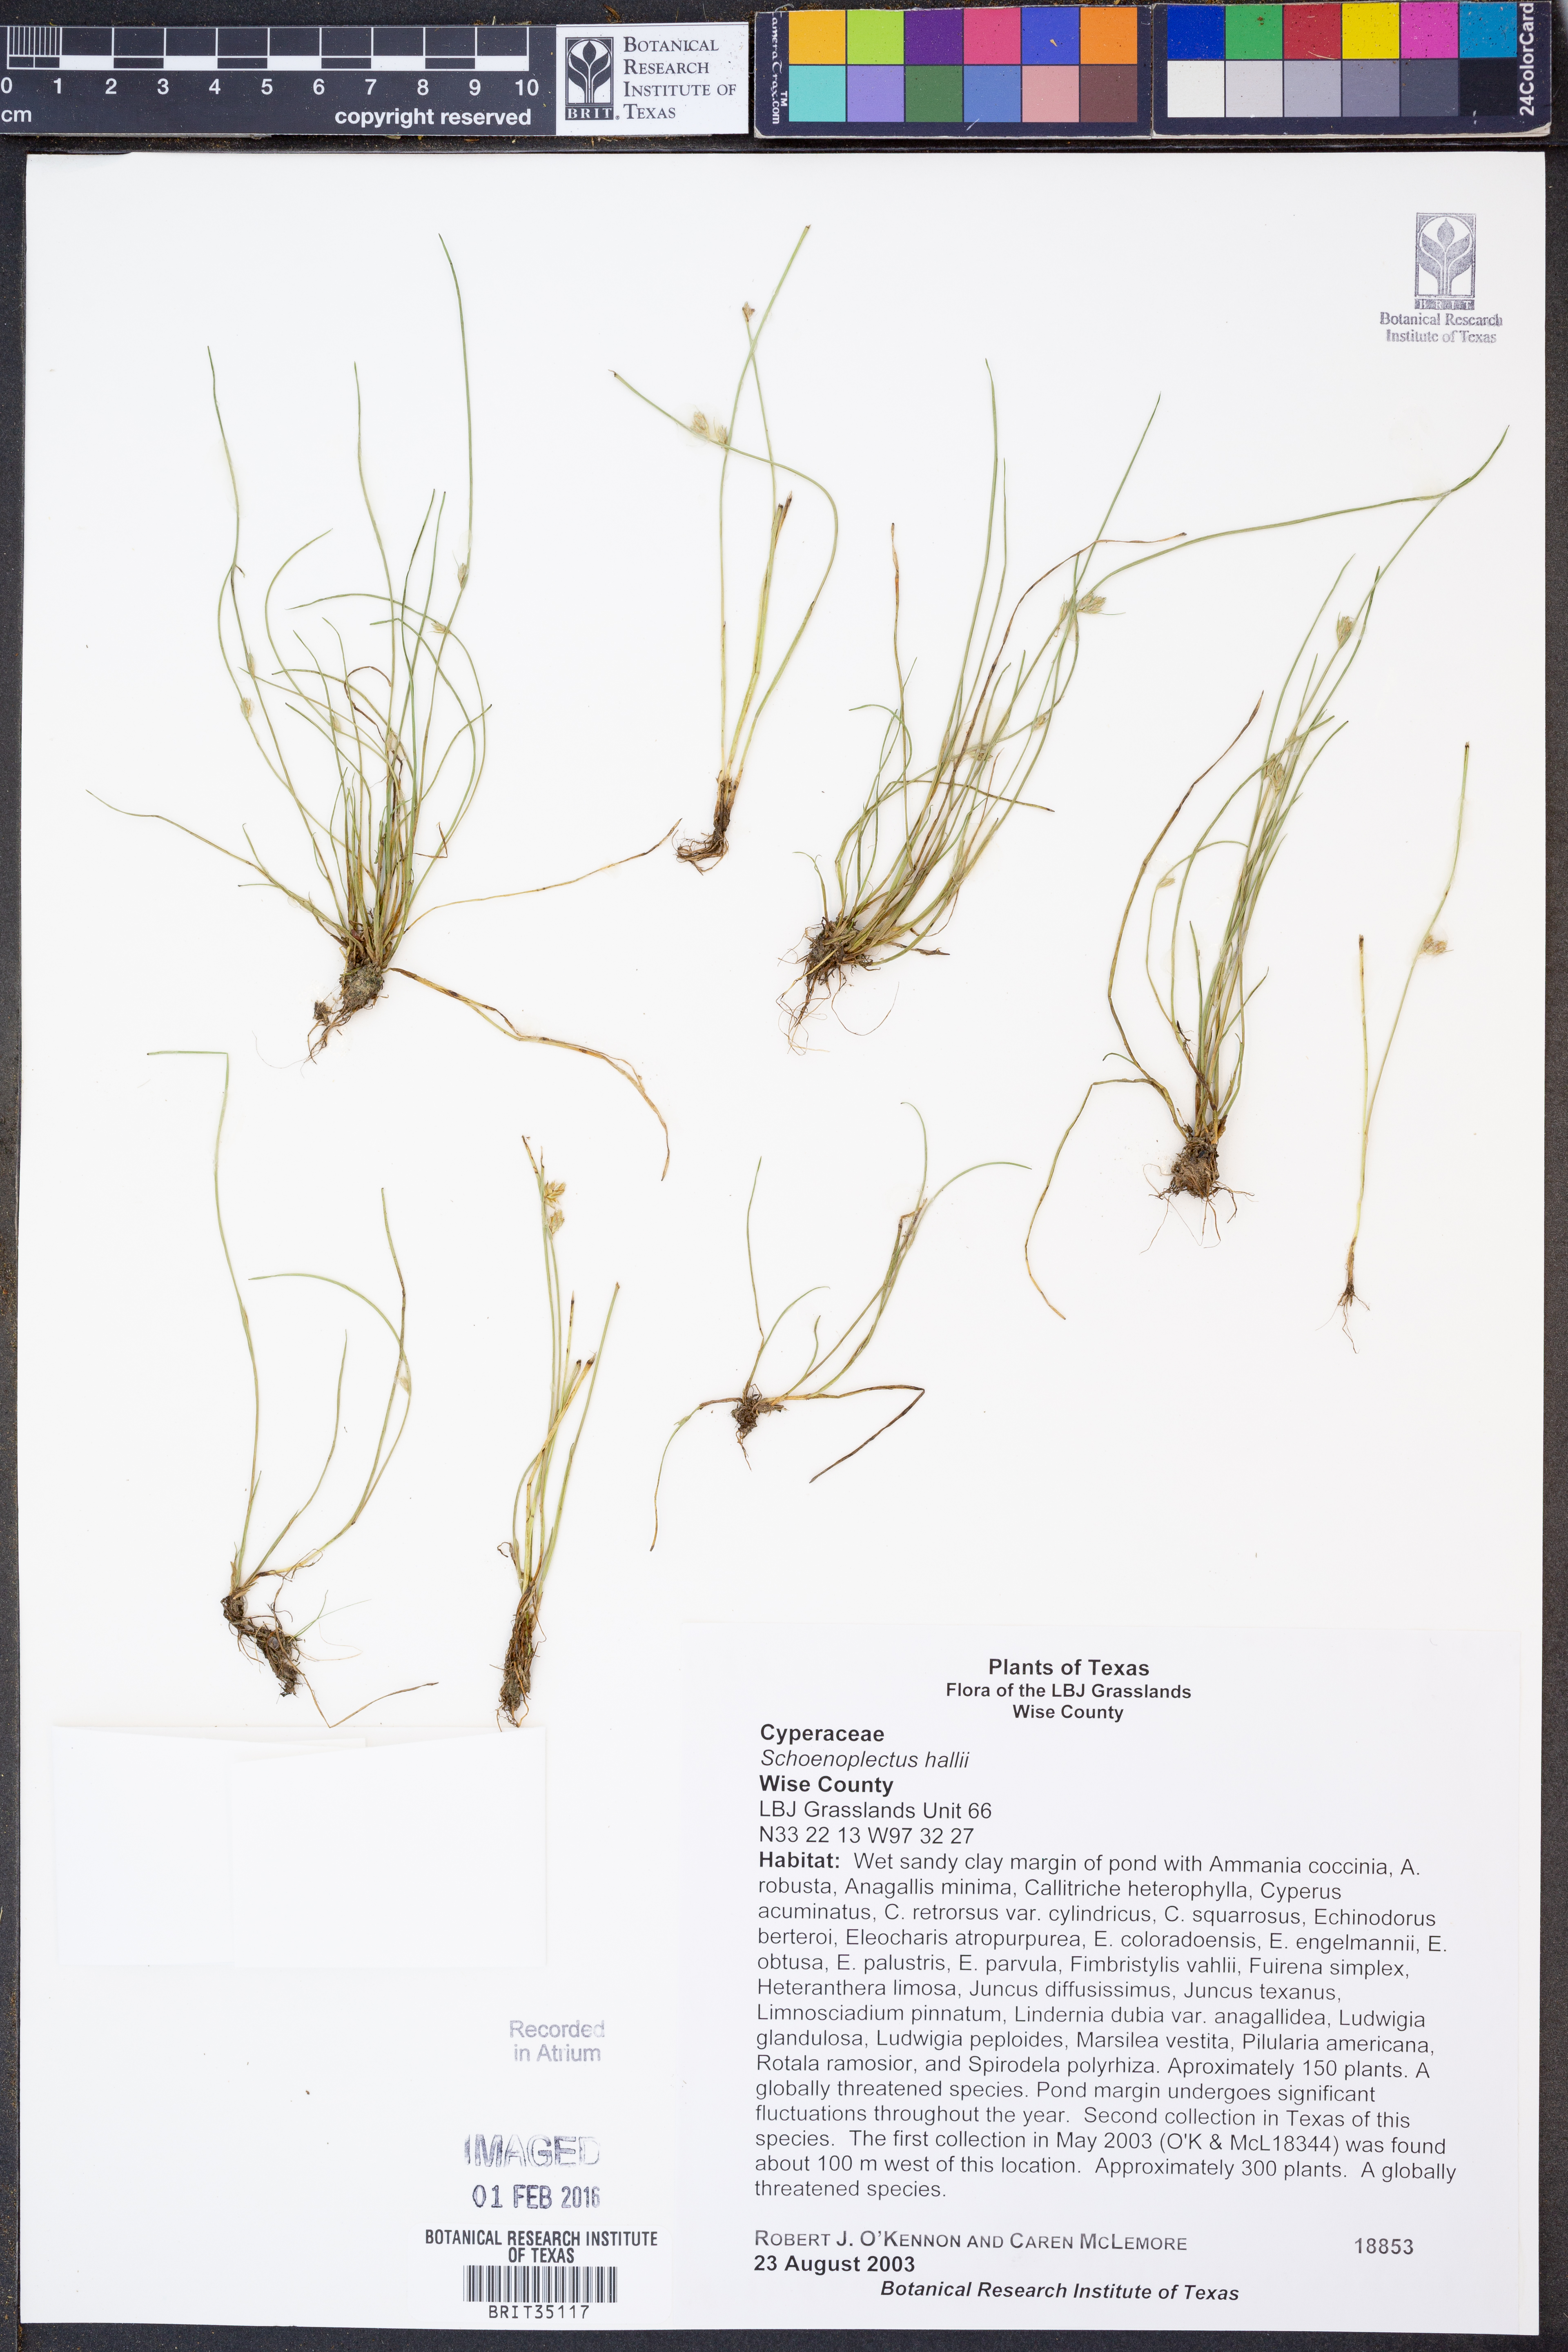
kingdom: Plantae
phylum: Tracheophyta
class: Liliopsida
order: Poales
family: Cyperaceae
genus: Schoenoplectiella
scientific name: Schoenoplectiella hallii
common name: Hall's bullrush
